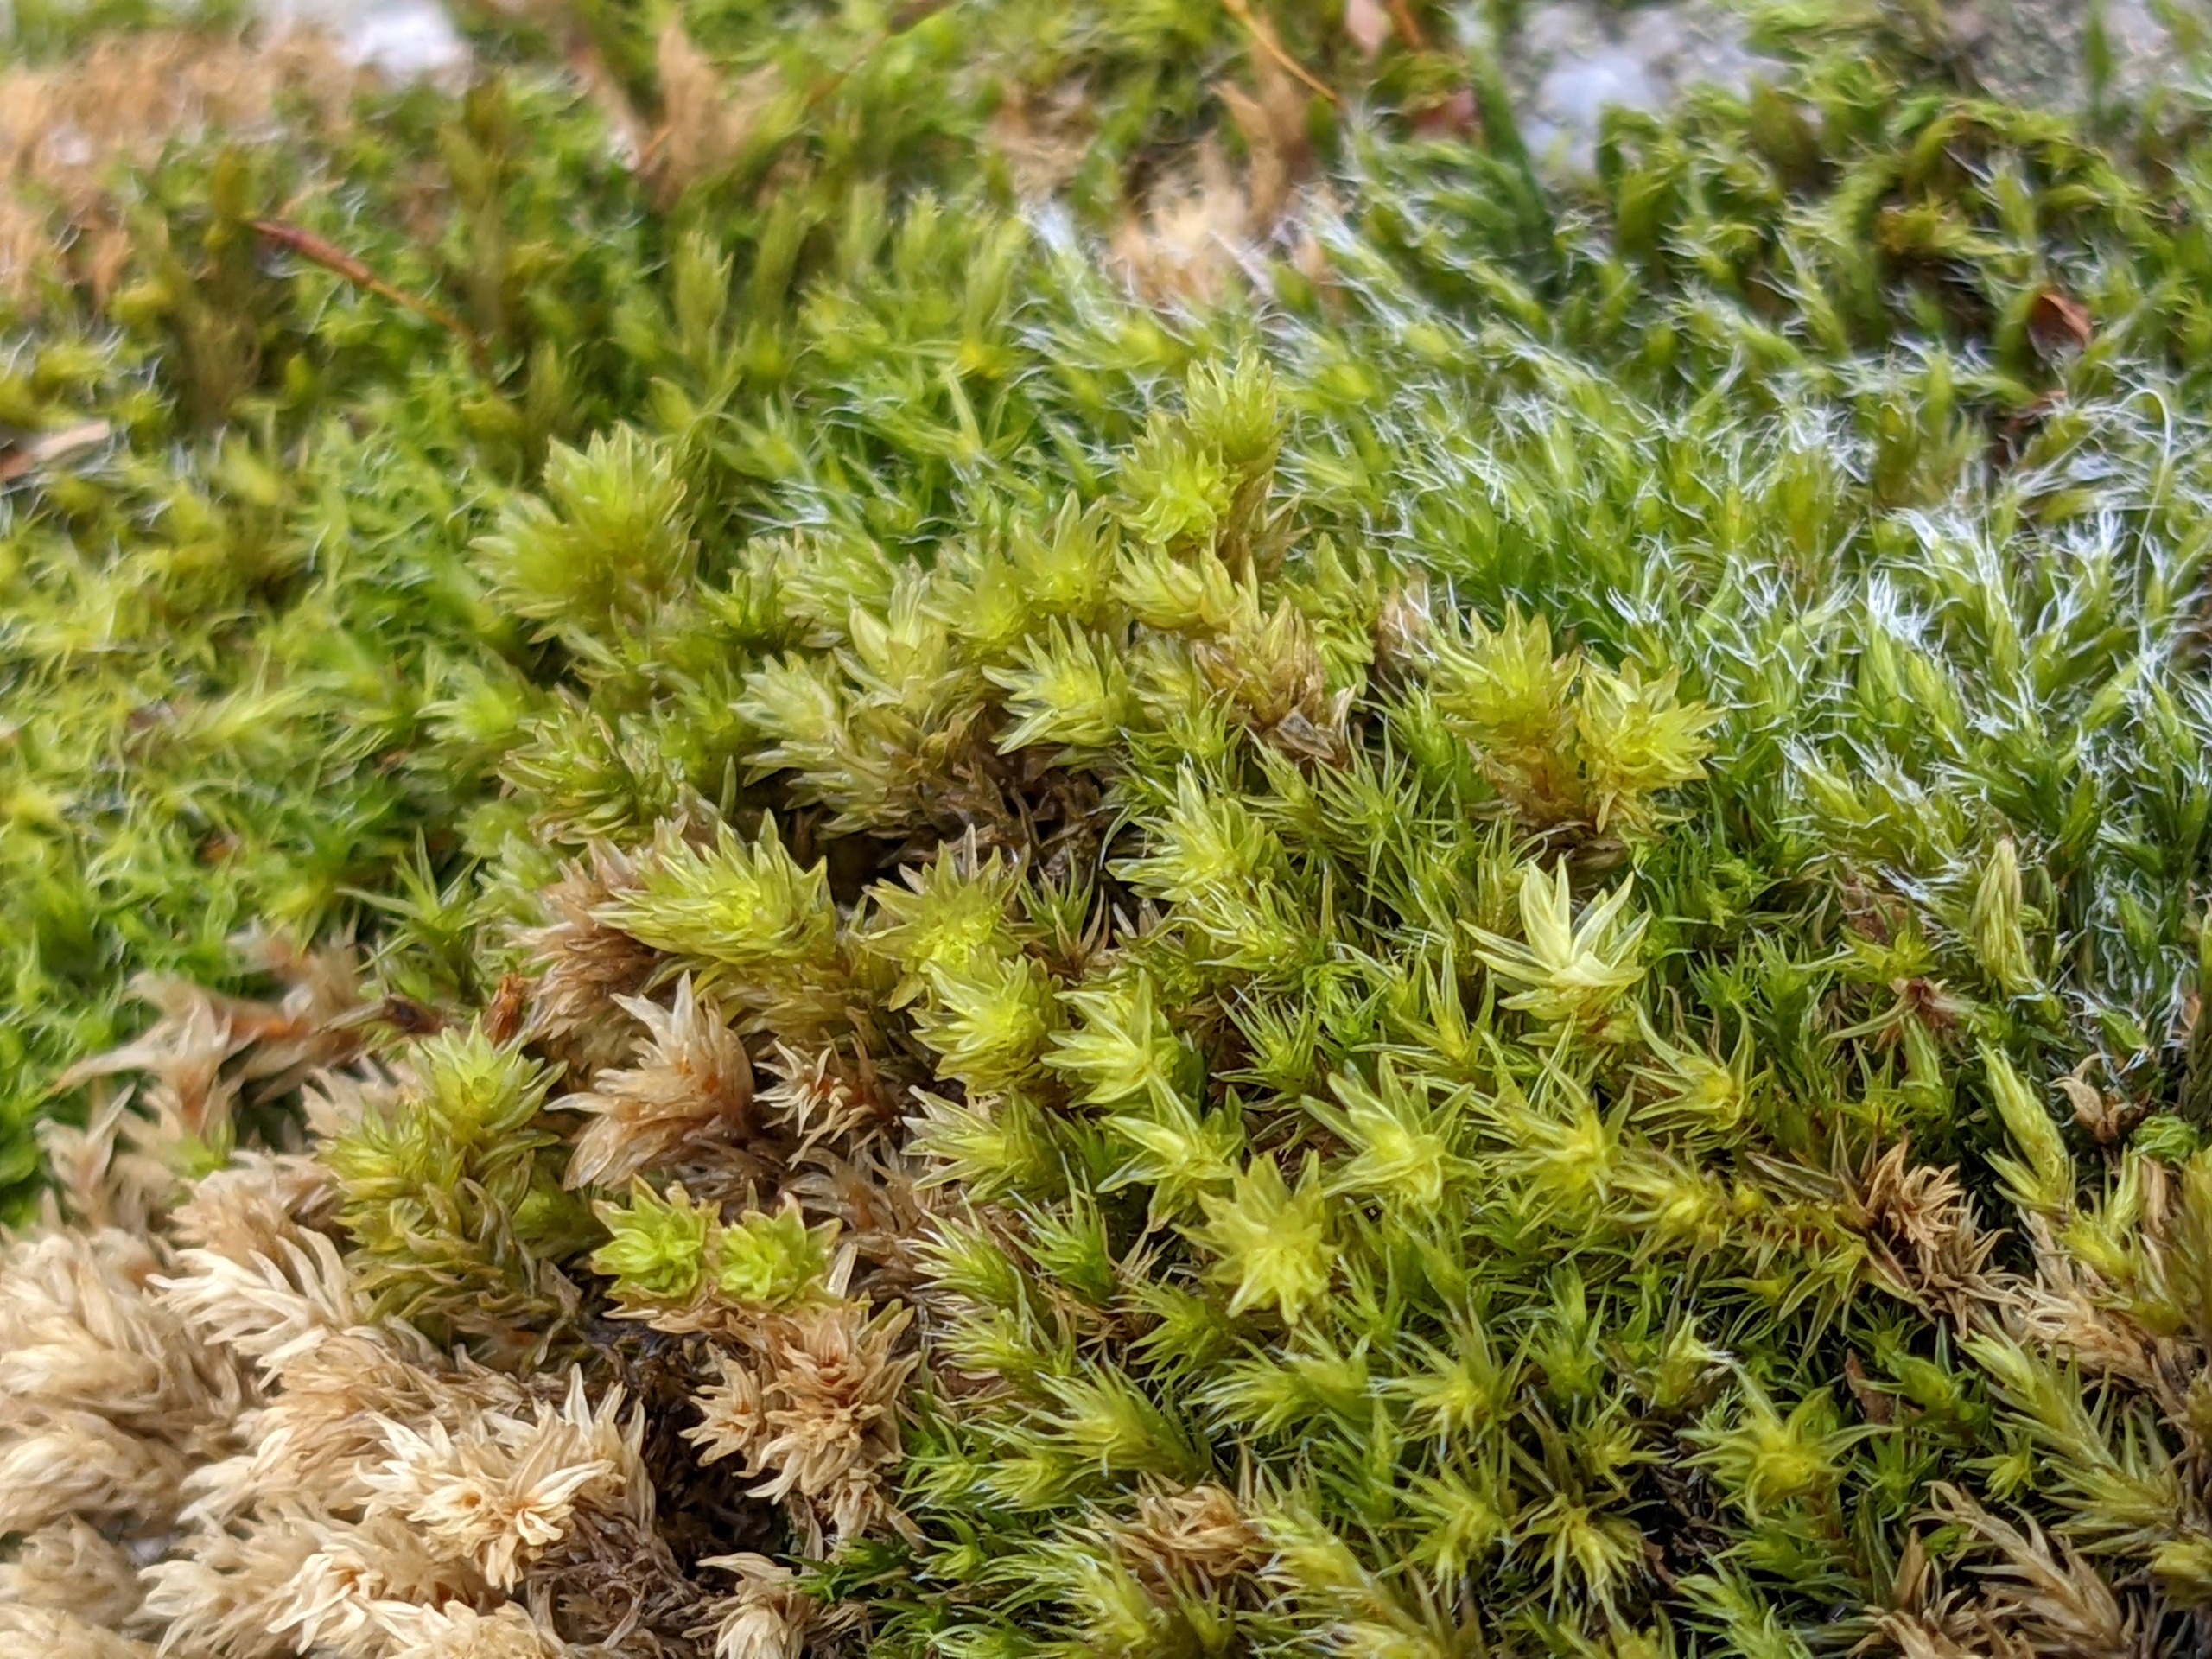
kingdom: Plantae
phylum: Bryophyta
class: Bryopsida
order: Grimmiales
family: Grimmiaceae
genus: Codriophorus
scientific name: Codriophorus acicularis
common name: Butbladet børstemos
